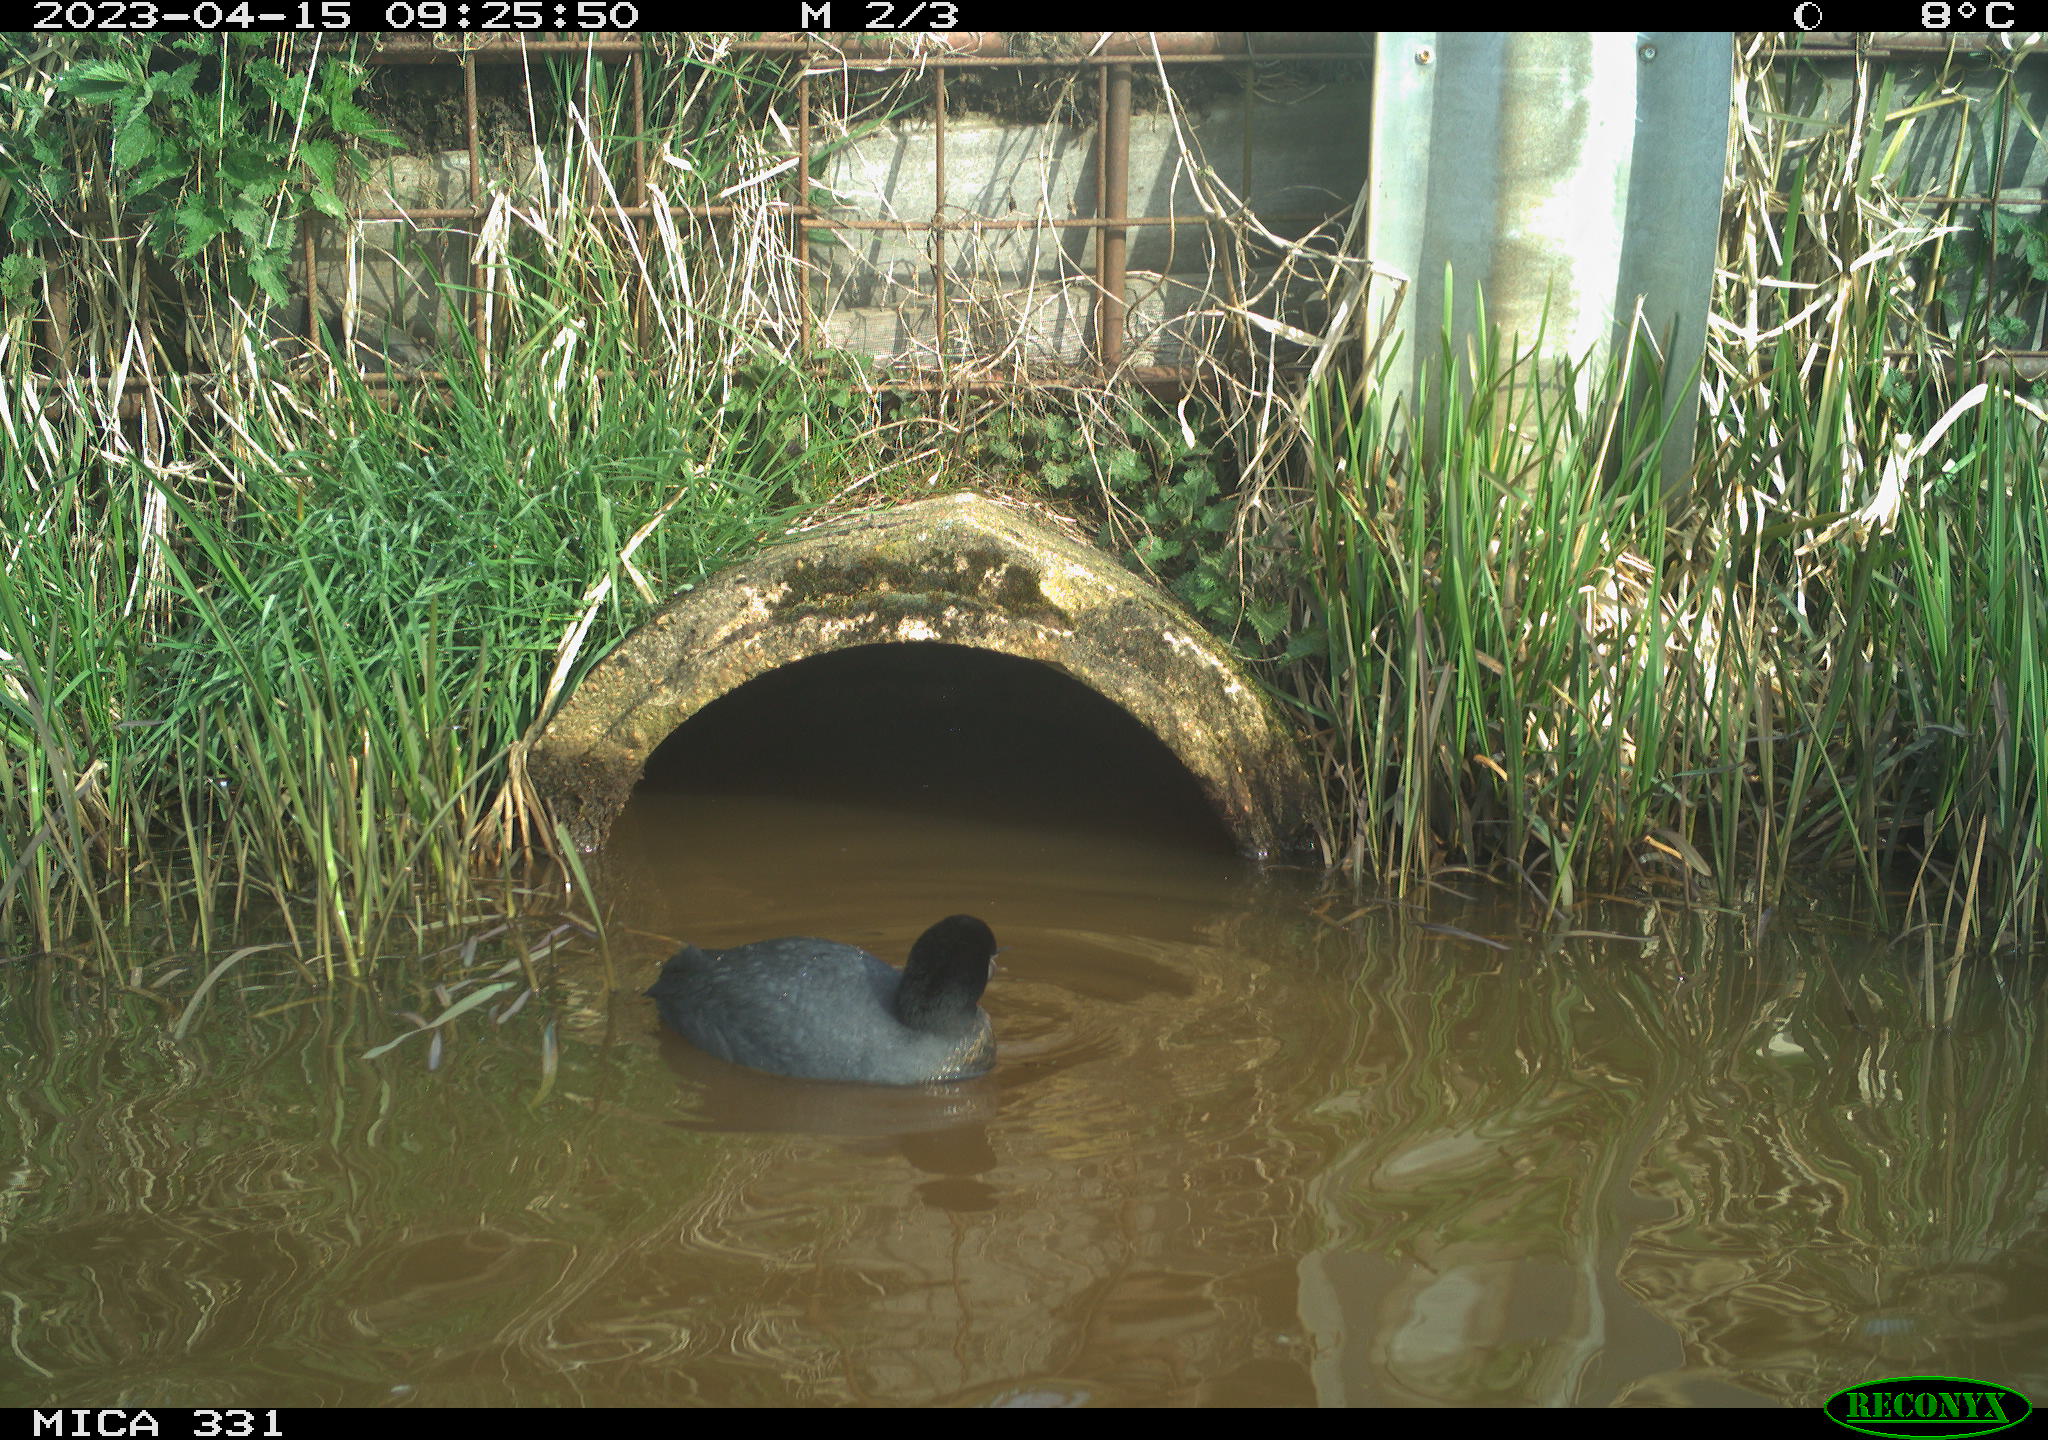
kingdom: Animalia
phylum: Chordata
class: Aves
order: Gruiformes
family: Rallidae
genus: Fulica
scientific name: Fulica atra
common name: Eurasian coot
